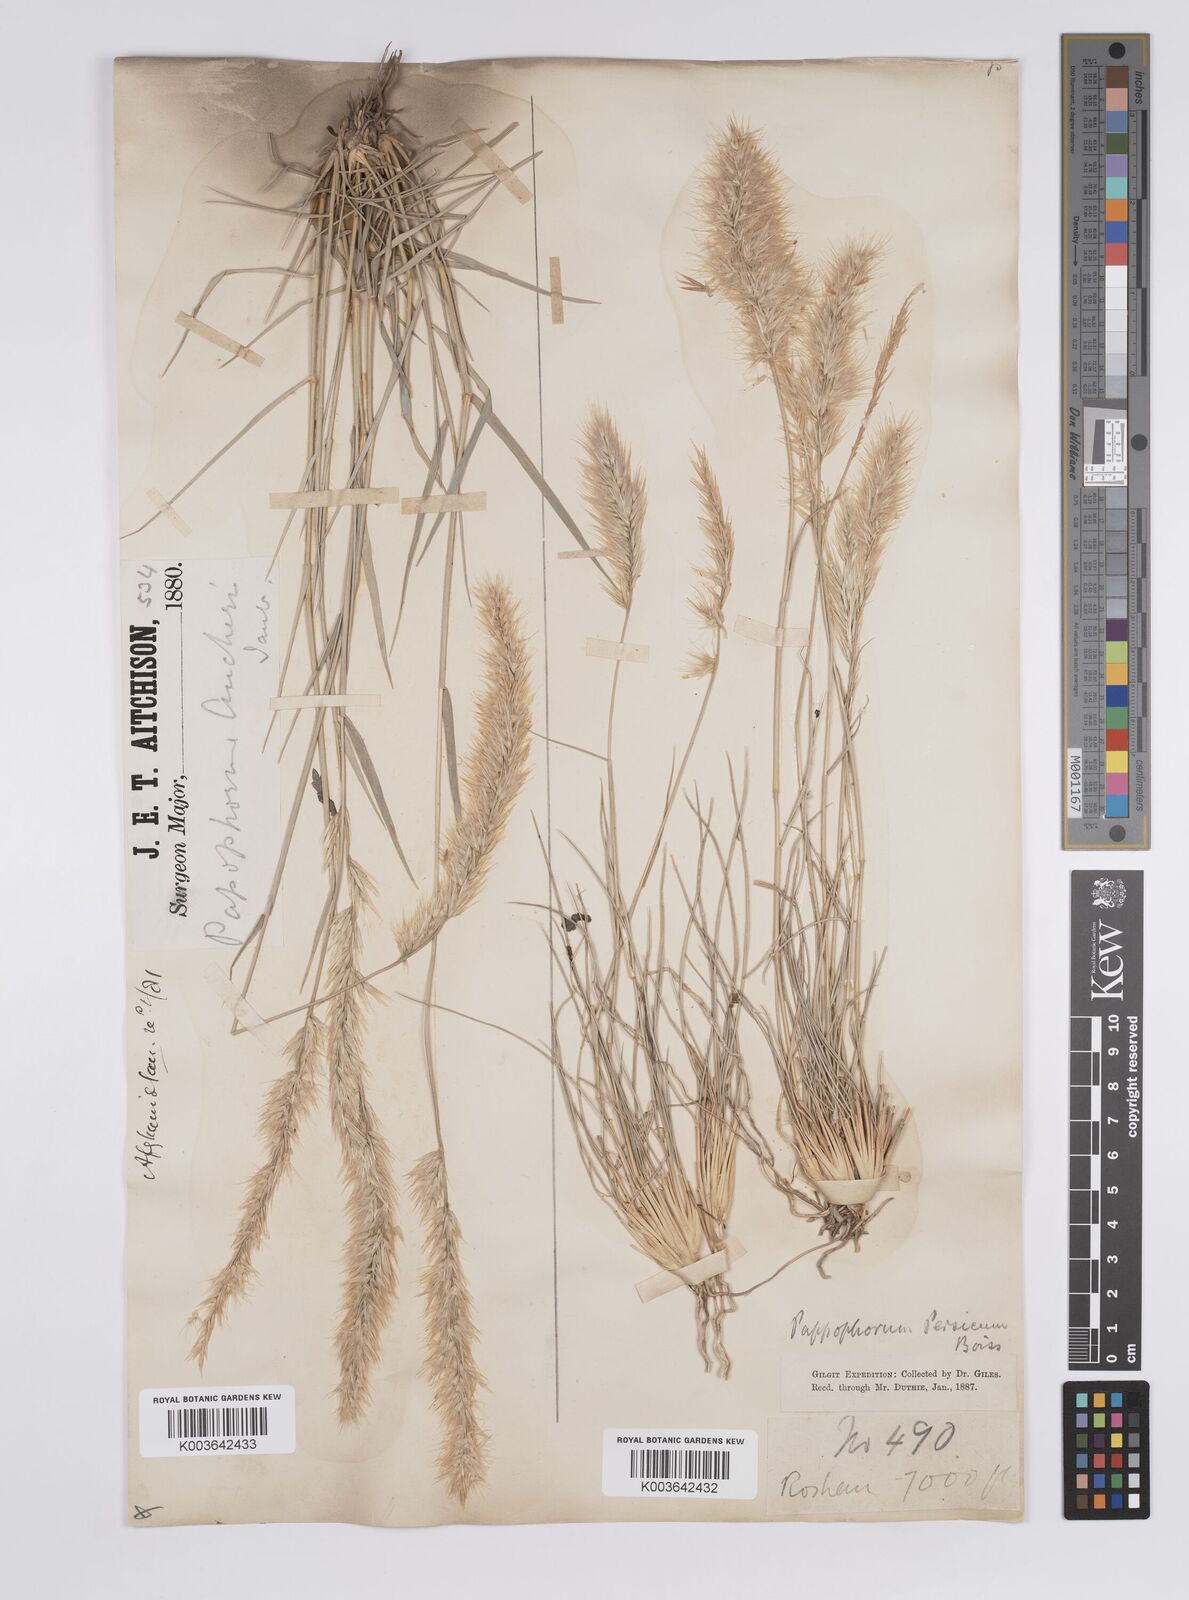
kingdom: Plantae
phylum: Tracheophyta
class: Liliopsida
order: Poales
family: Poaceae
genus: Enneapogon
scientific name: Enneapogon persicus
